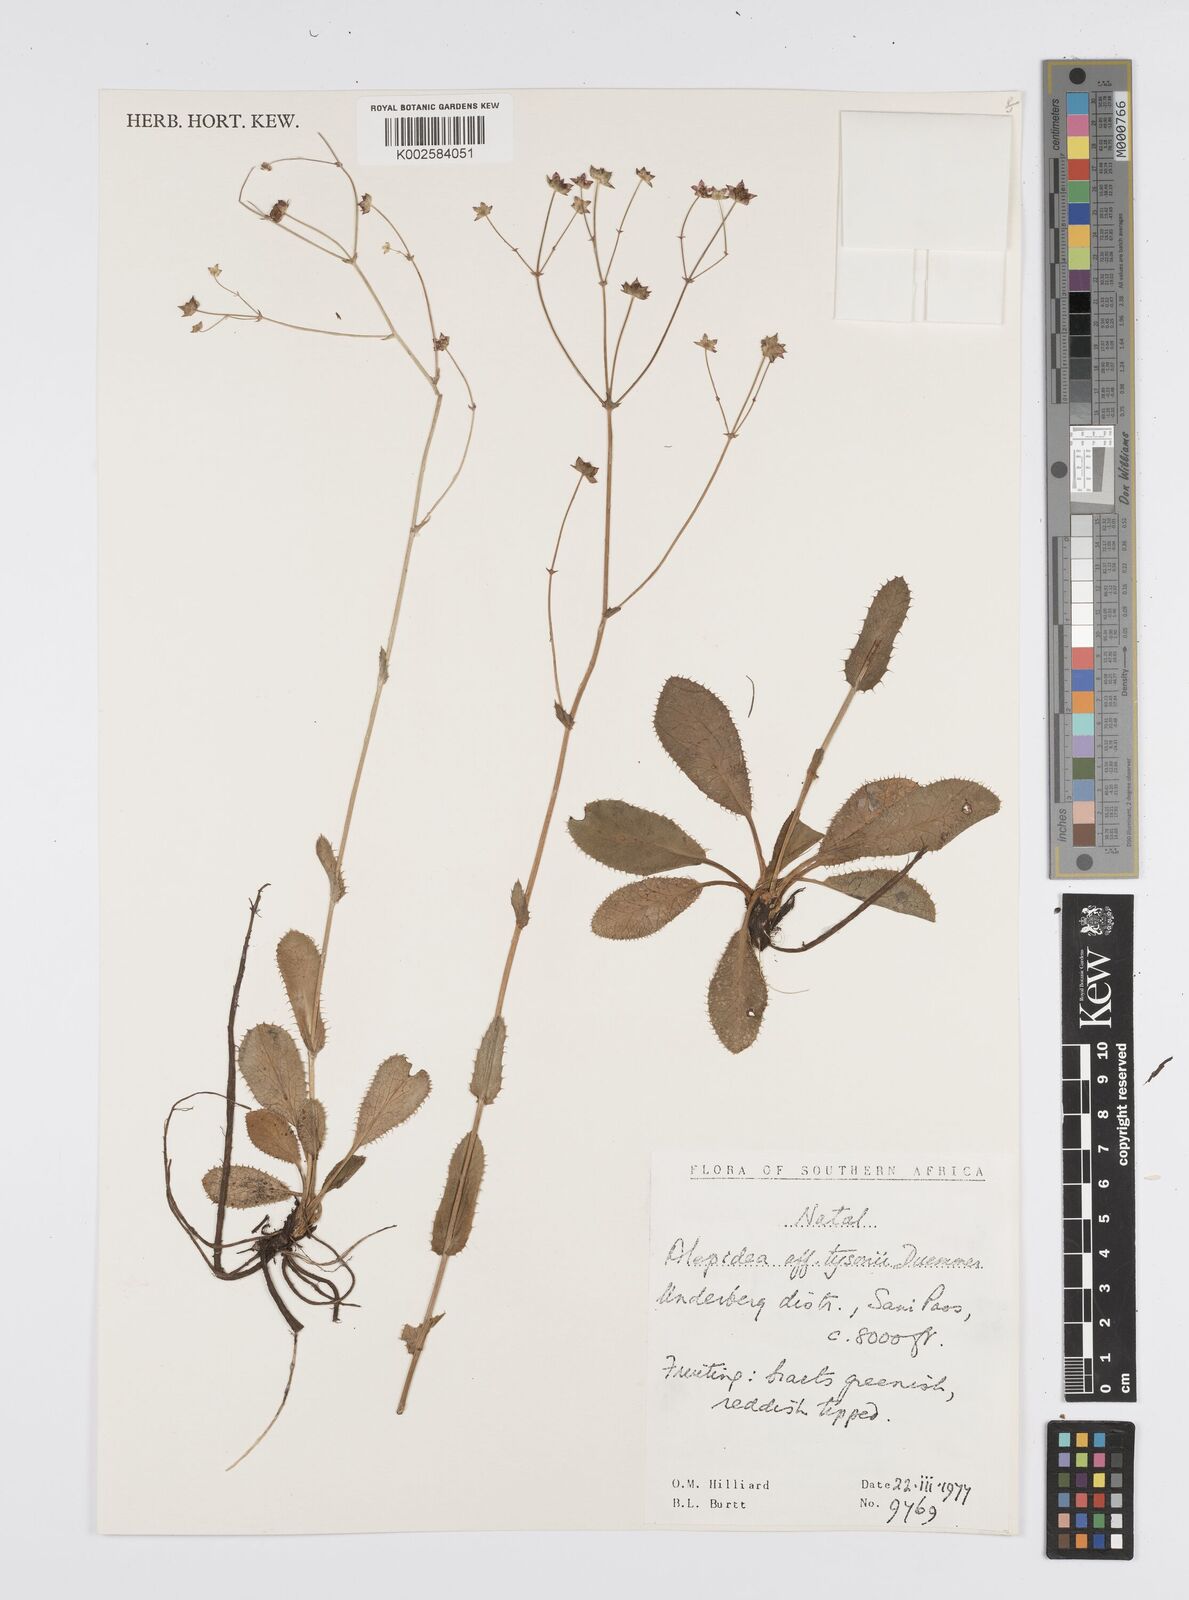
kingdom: Plantae
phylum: Tracheophyta
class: Magnoliopsida
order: Apiales
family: Apiaceae
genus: Alepidea
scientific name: Alepidea woodii
